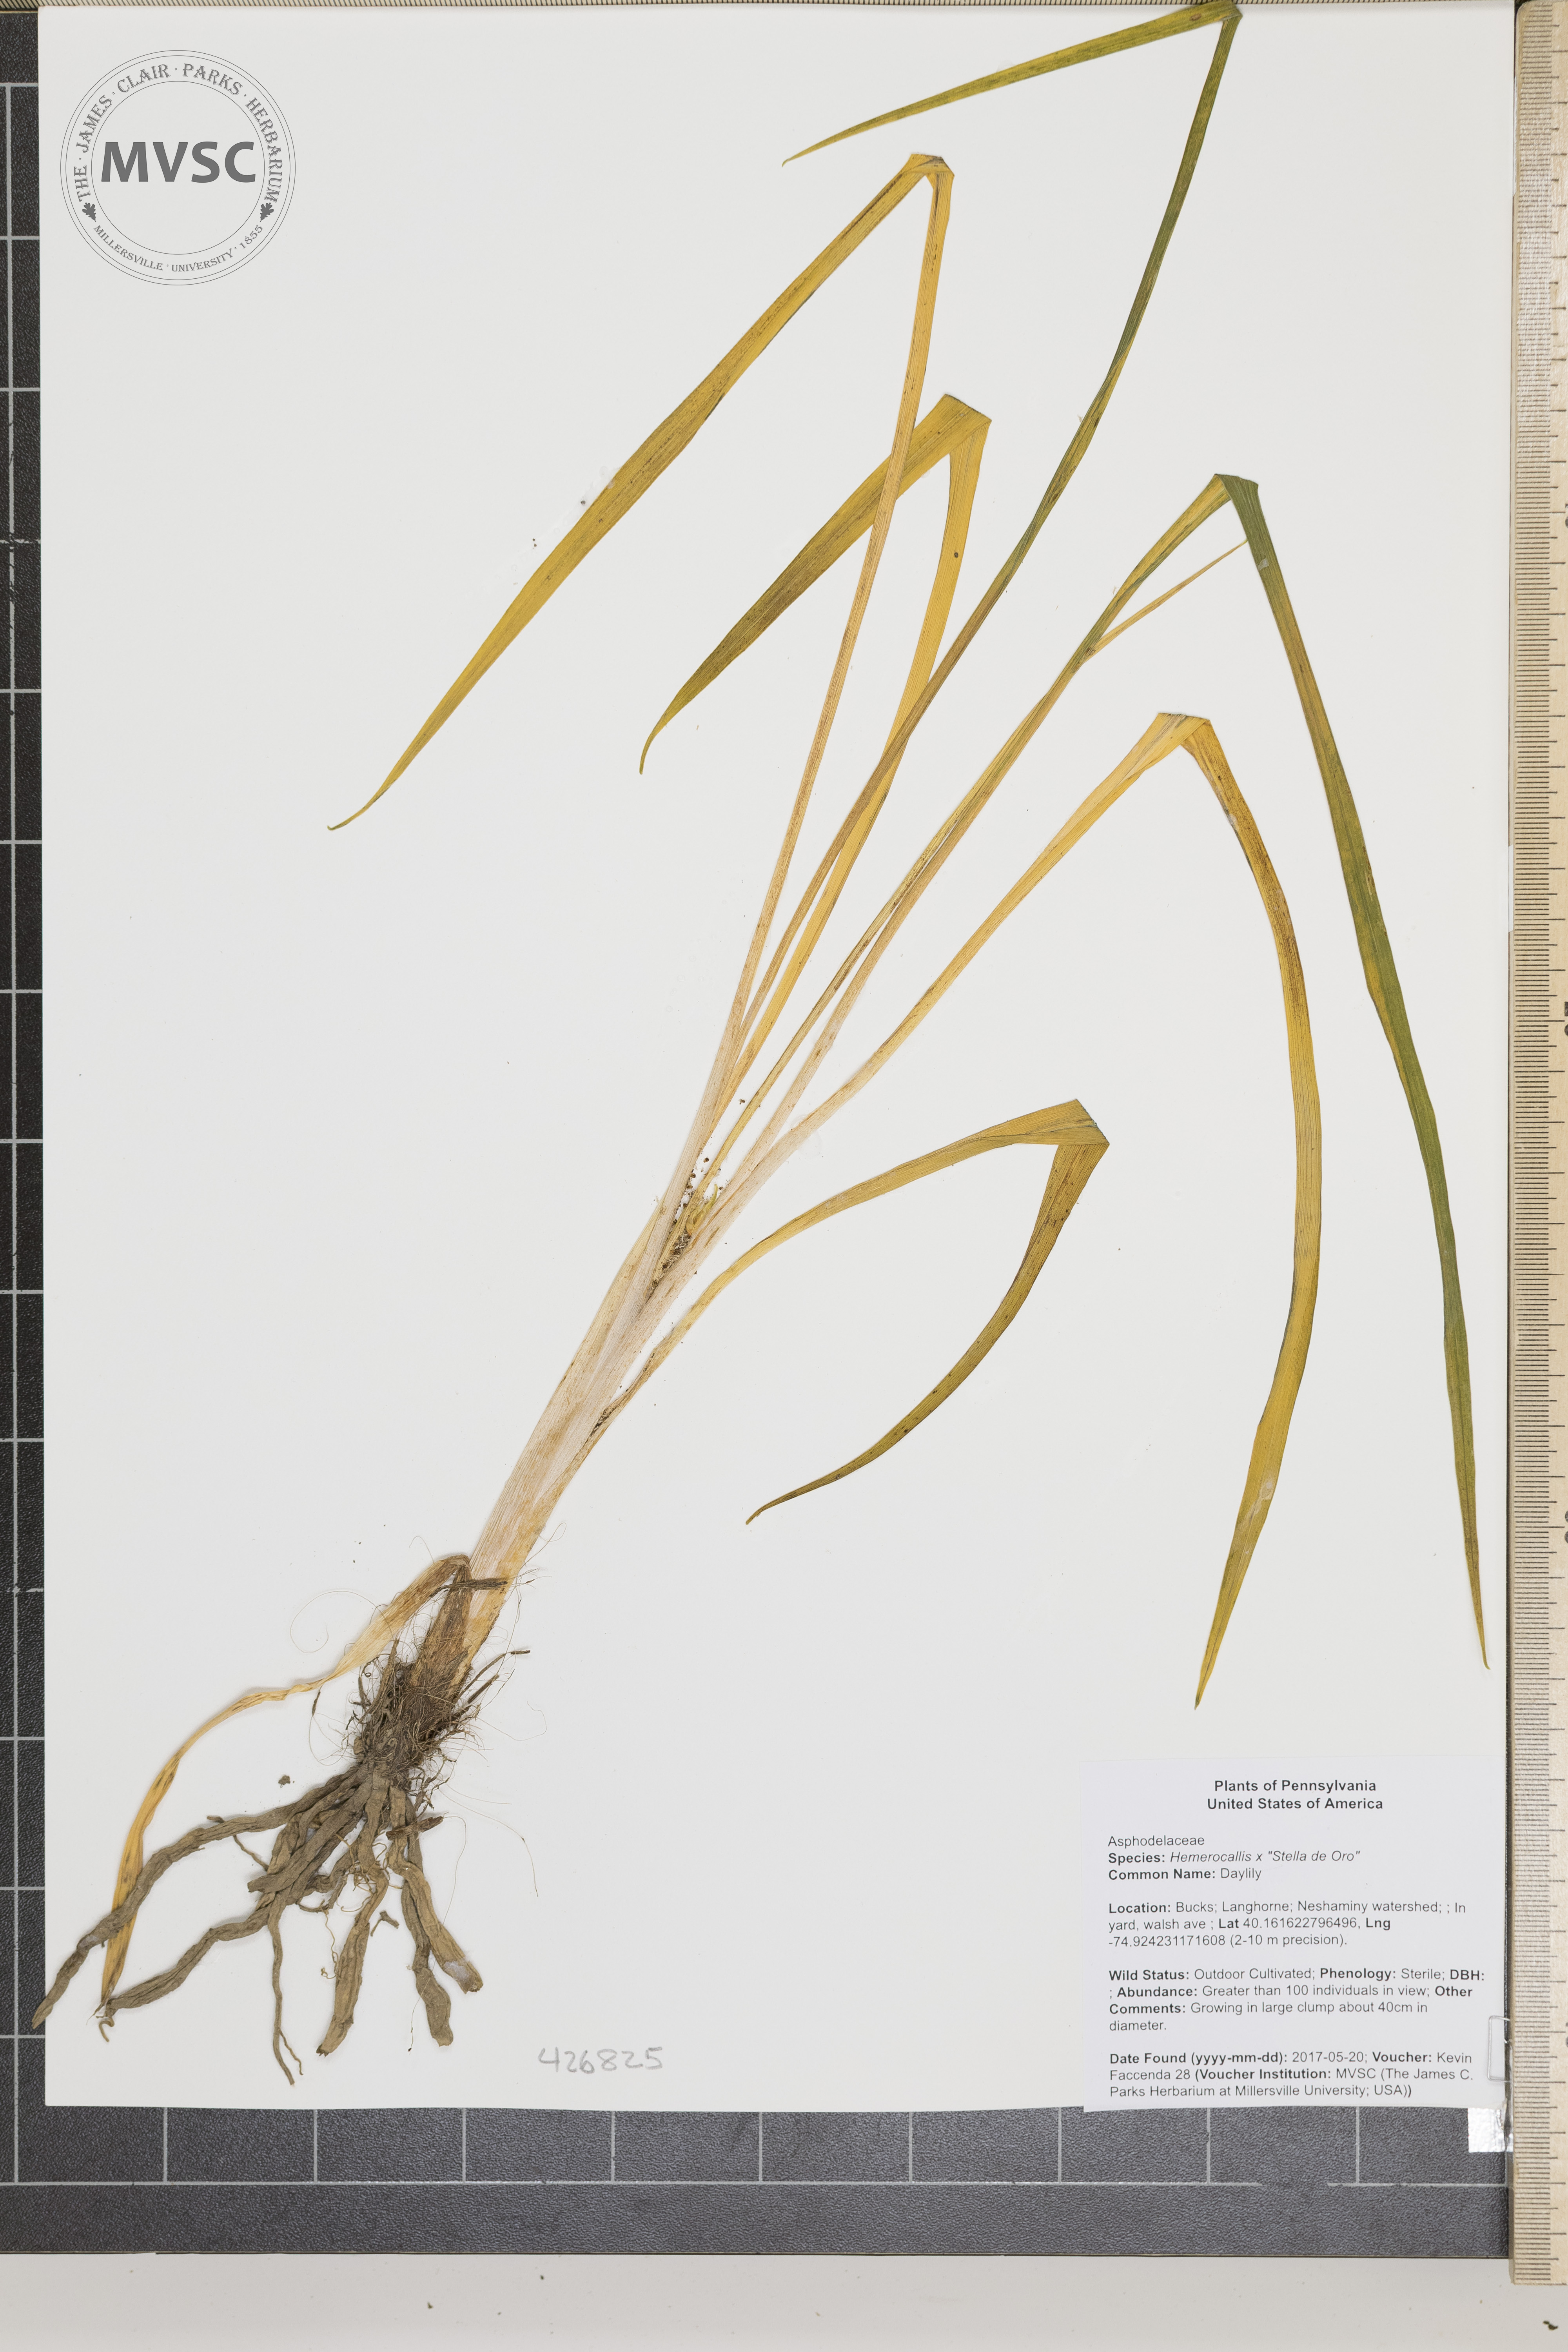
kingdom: Plantae
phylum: Tracheophyta
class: Liliopsida
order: Asparagales
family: Asphodelaceae
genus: Hemerocallis
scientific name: Hemerocallis
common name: Day lily
